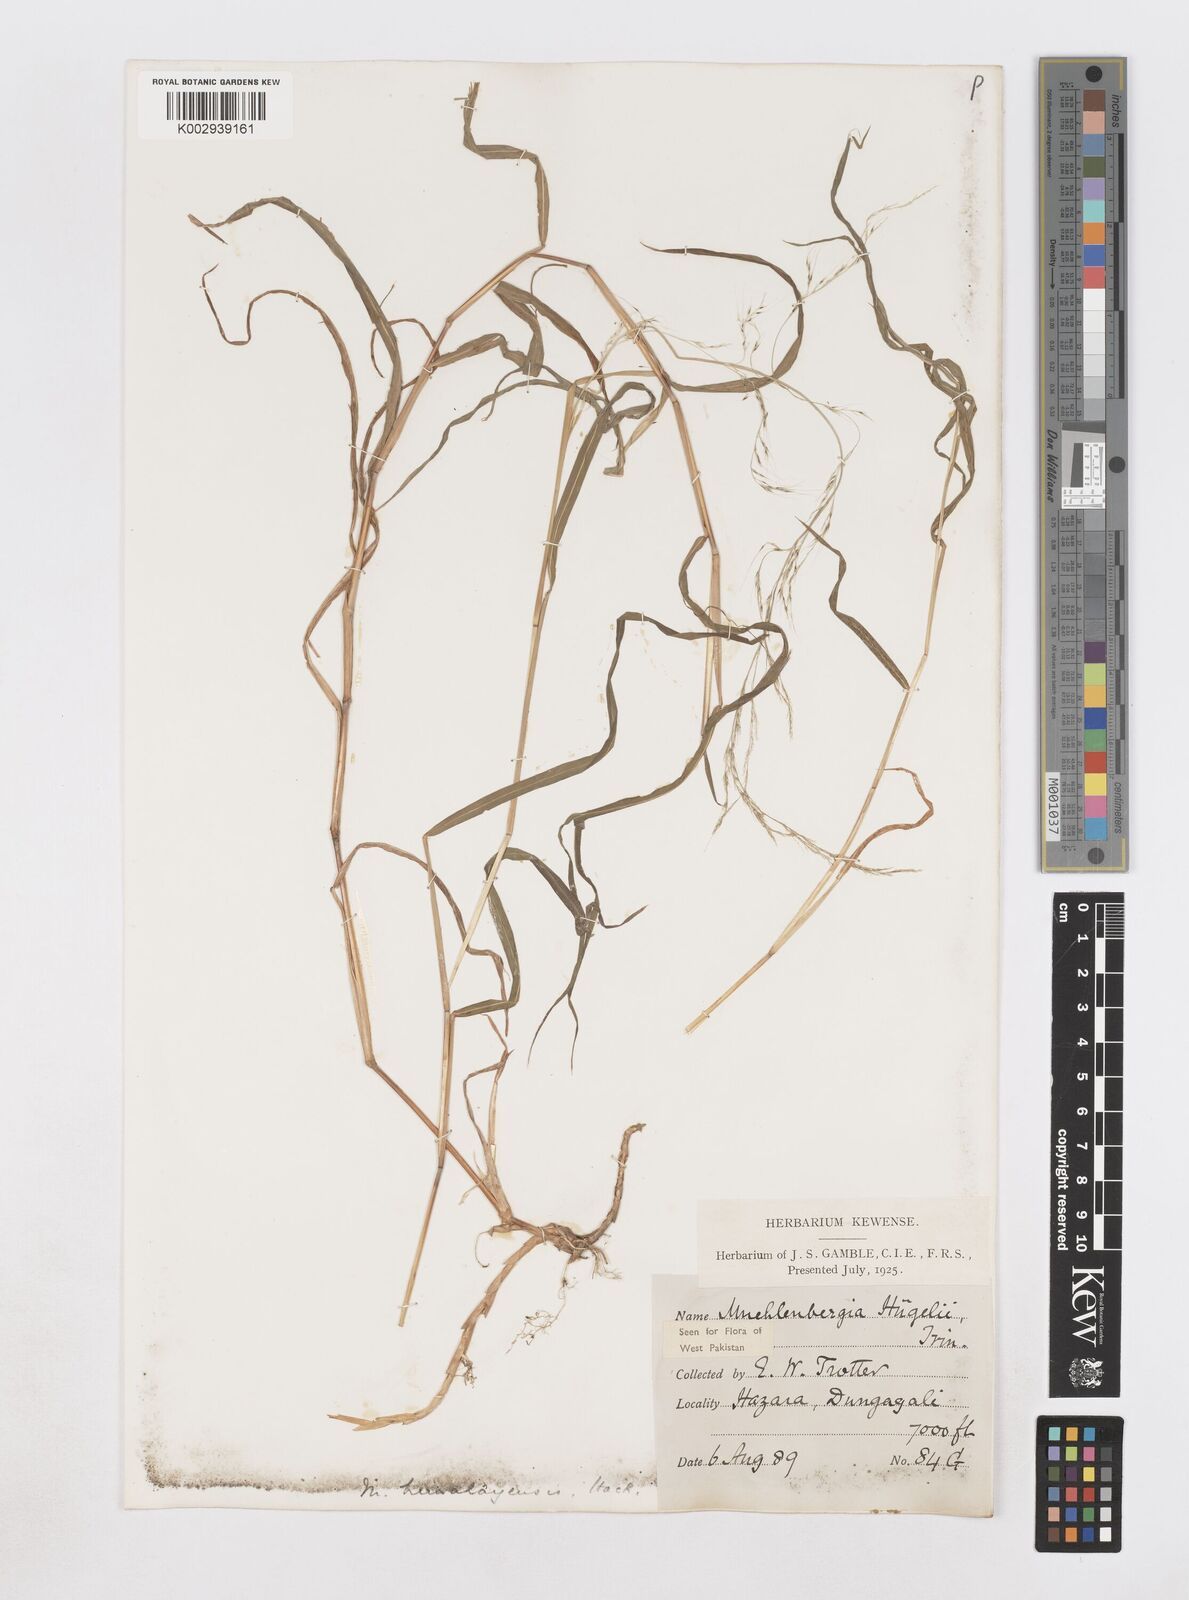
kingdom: Plantae
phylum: Tracheophyta
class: Liliopsida
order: Poales
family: Poaceae
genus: Muhlenbergia
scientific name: Muhlenbergia huegelii
